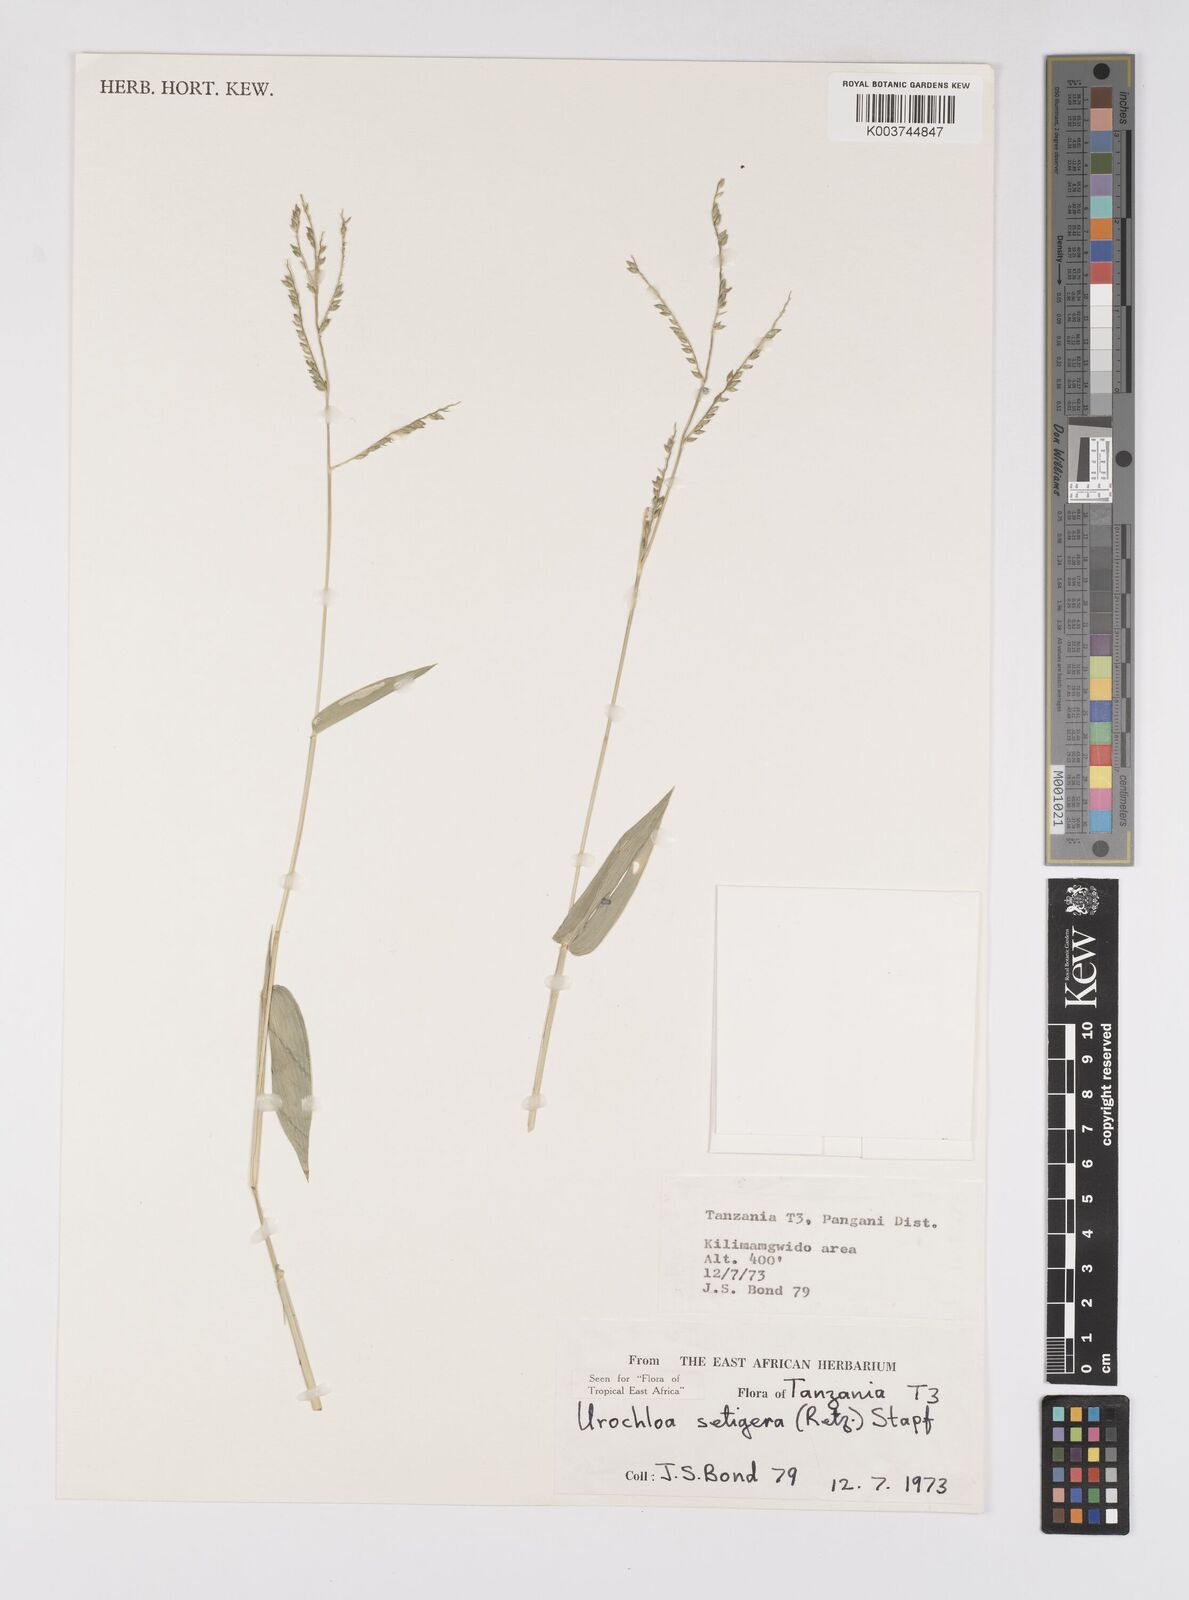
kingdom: Plantae
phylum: Tracheophyta
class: Liliopsida
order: Poales
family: Poaceae
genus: Urochloa
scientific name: Urochloa trichopodioides
